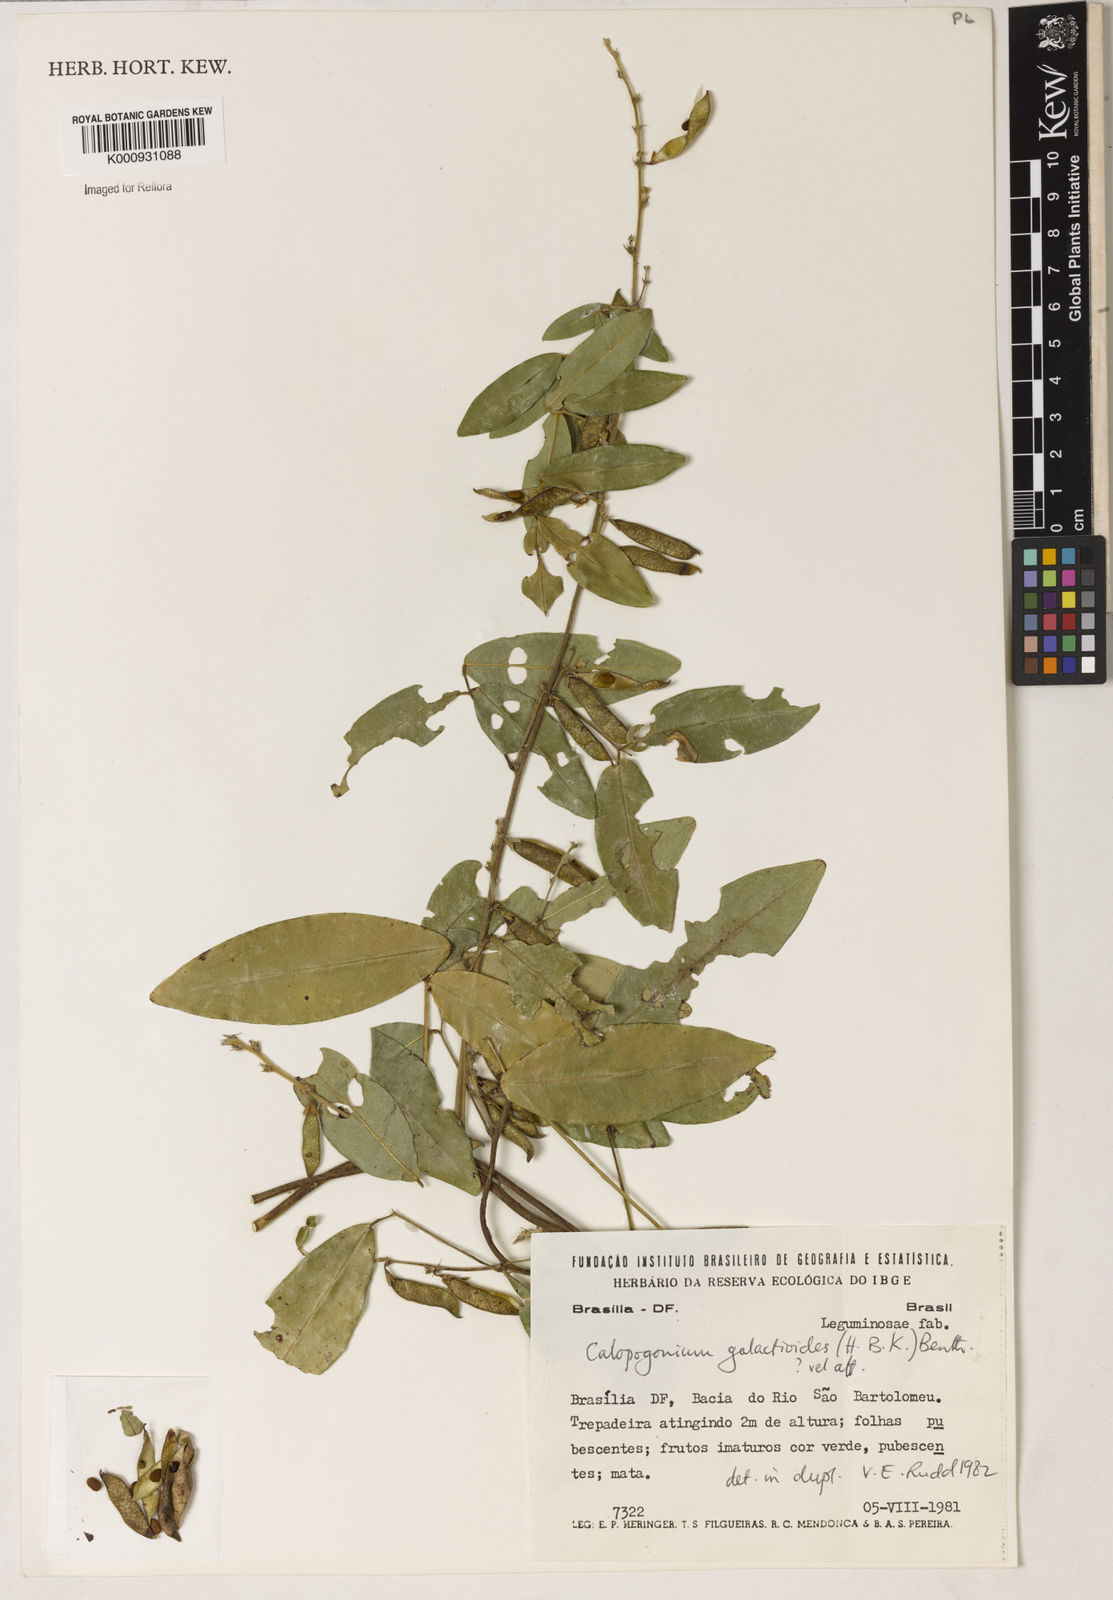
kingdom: Plantae
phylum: Tracheophyta
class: Magnoliopsida
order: Fabales
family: Fabaceae
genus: Calopogonium
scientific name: Calopogonium galactioides
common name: Legume
